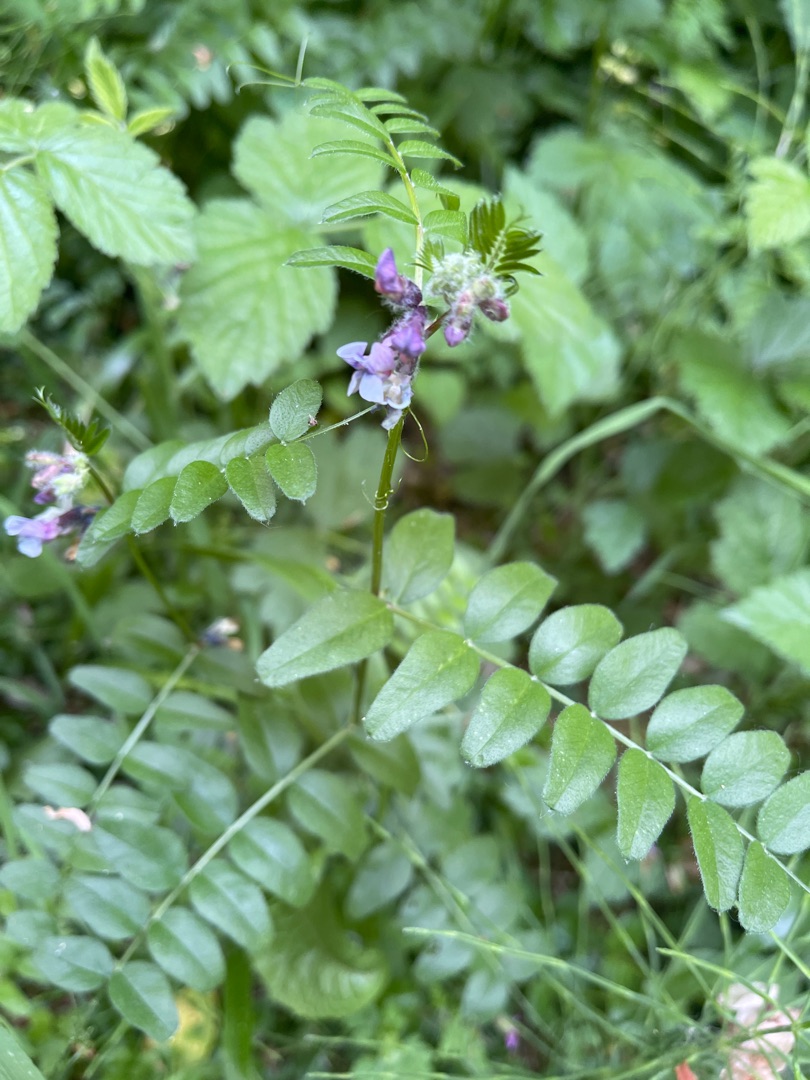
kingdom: Plantae
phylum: Tracheophyta
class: Magnoliopsida
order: Fabales
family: Fabaceae
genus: Vicia
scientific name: Vicia sepium
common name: Gærde-vikke
